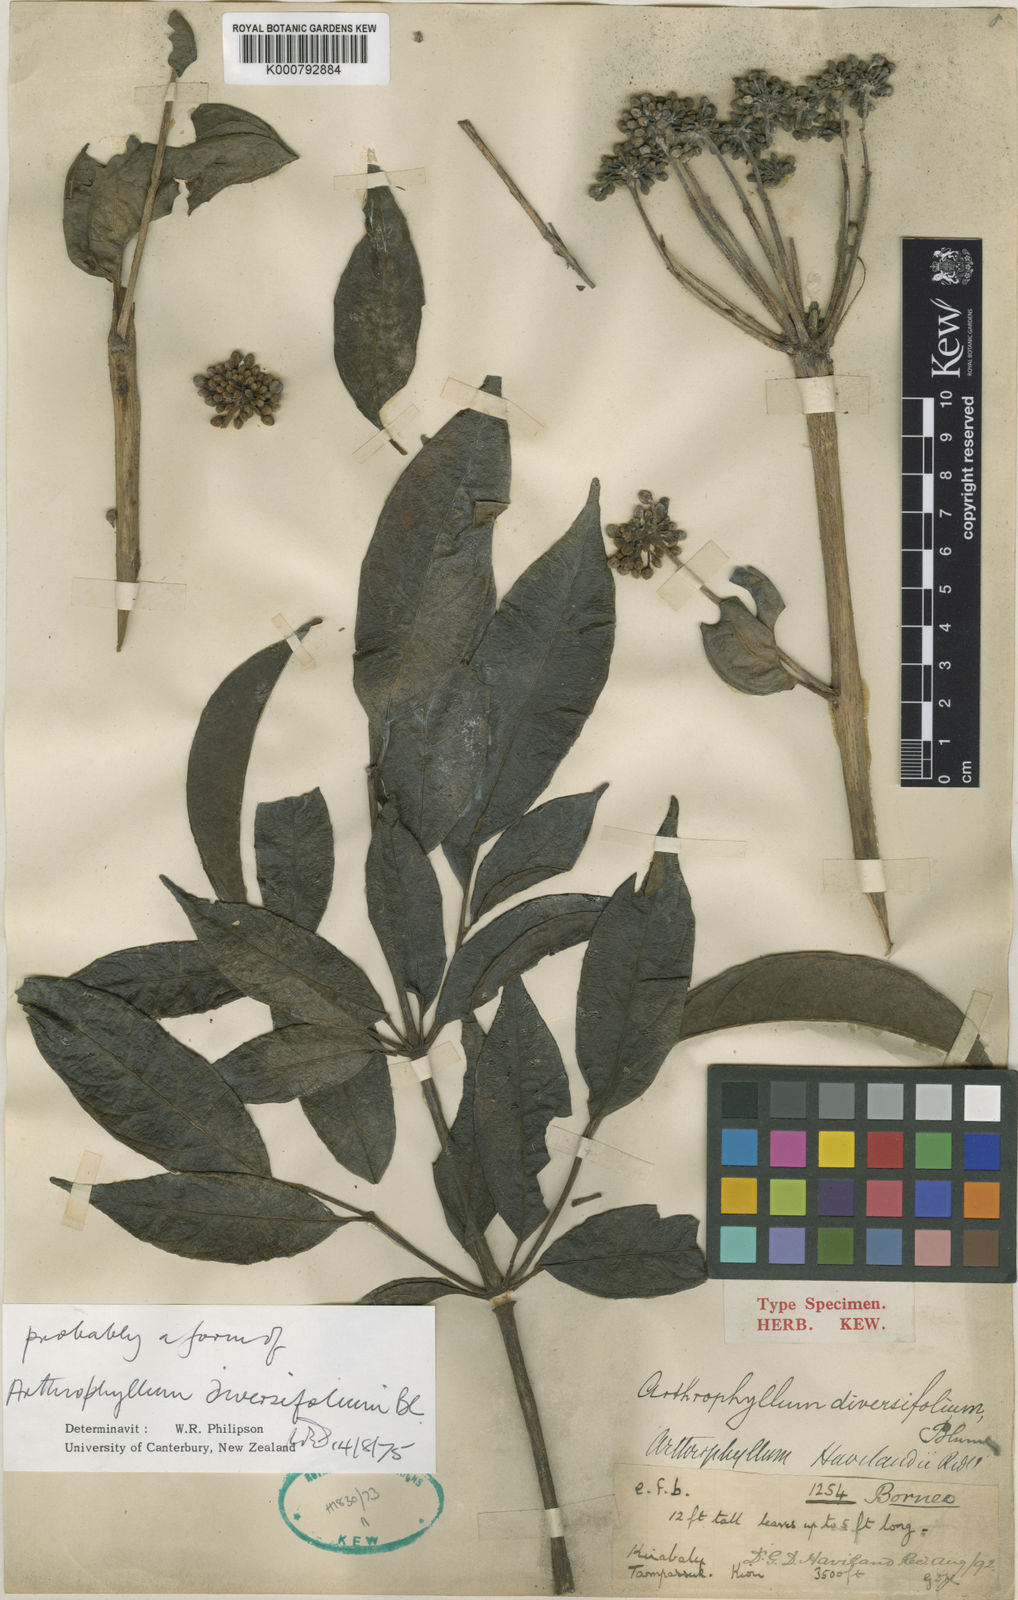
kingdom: Plantae
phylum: Tracheophyta
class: Magnoliopsida
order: Apiales
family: Araliaceae
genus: Polyscias
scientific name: Polyscias diversifolia
